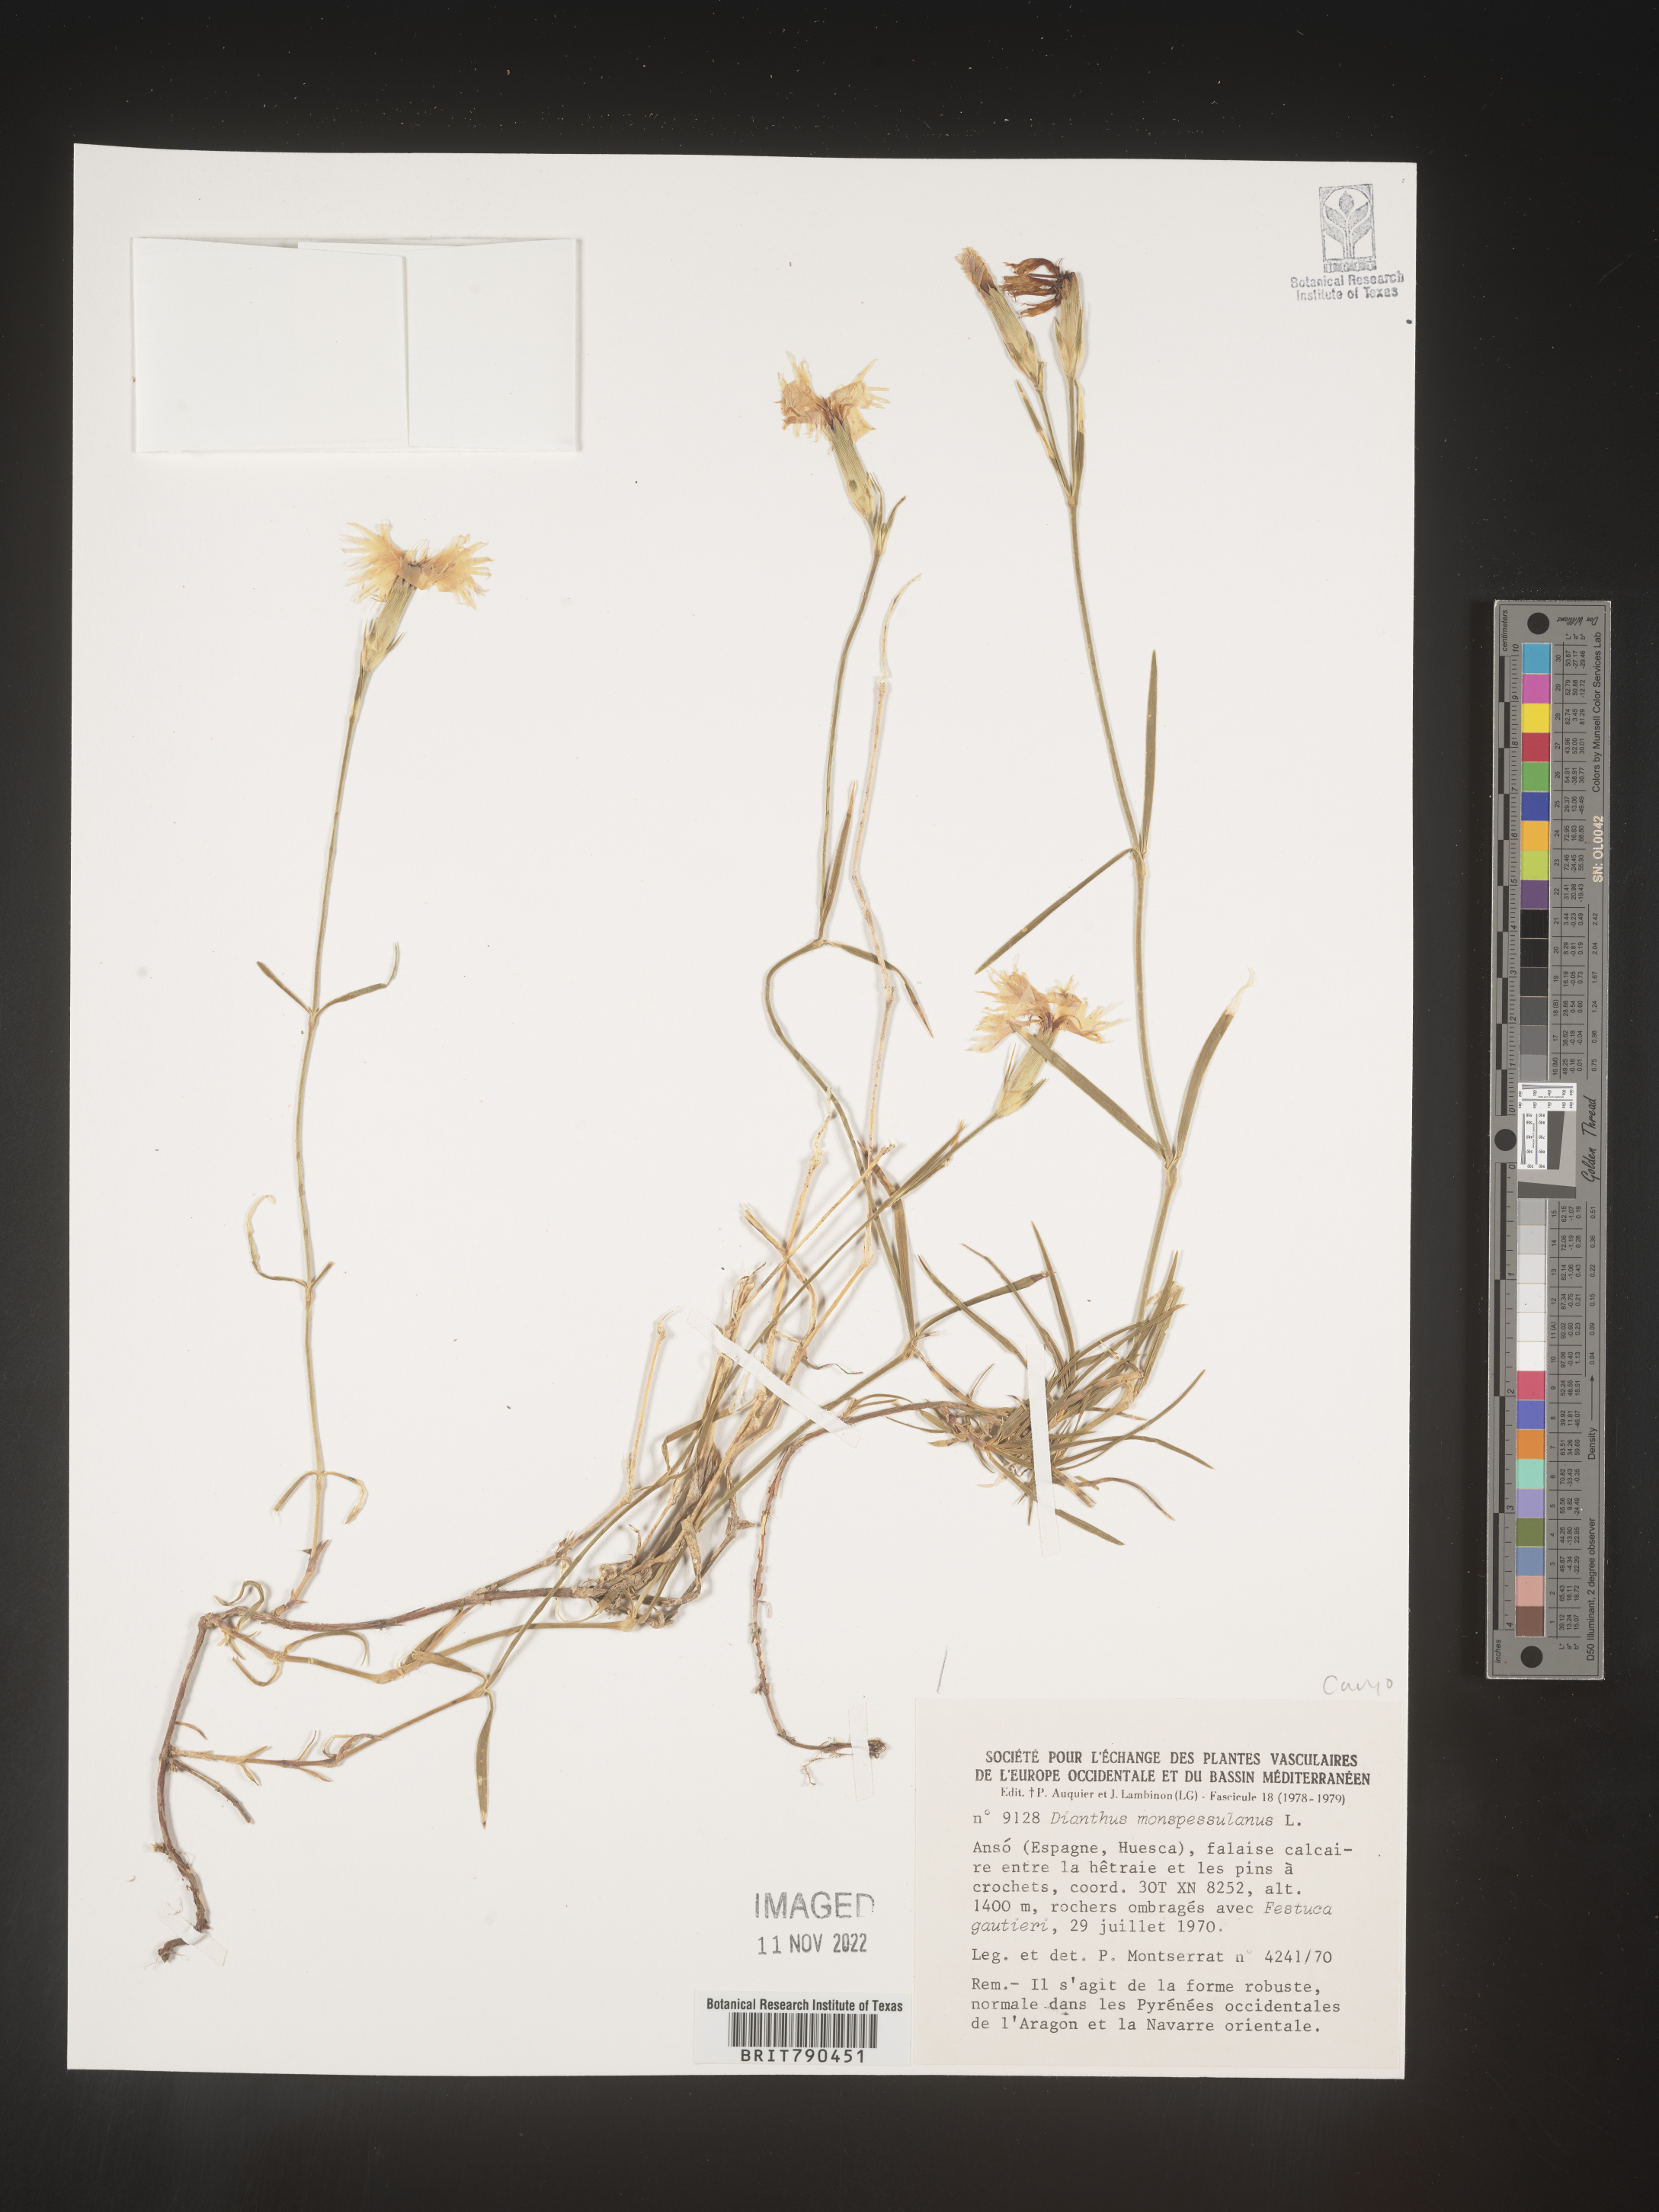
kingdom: Plantae
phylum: Tracheophyta
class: Magnoliopsida
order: Caryophyllales
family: Caryophyllaceae
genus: Dianthus
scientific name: Dianthus
